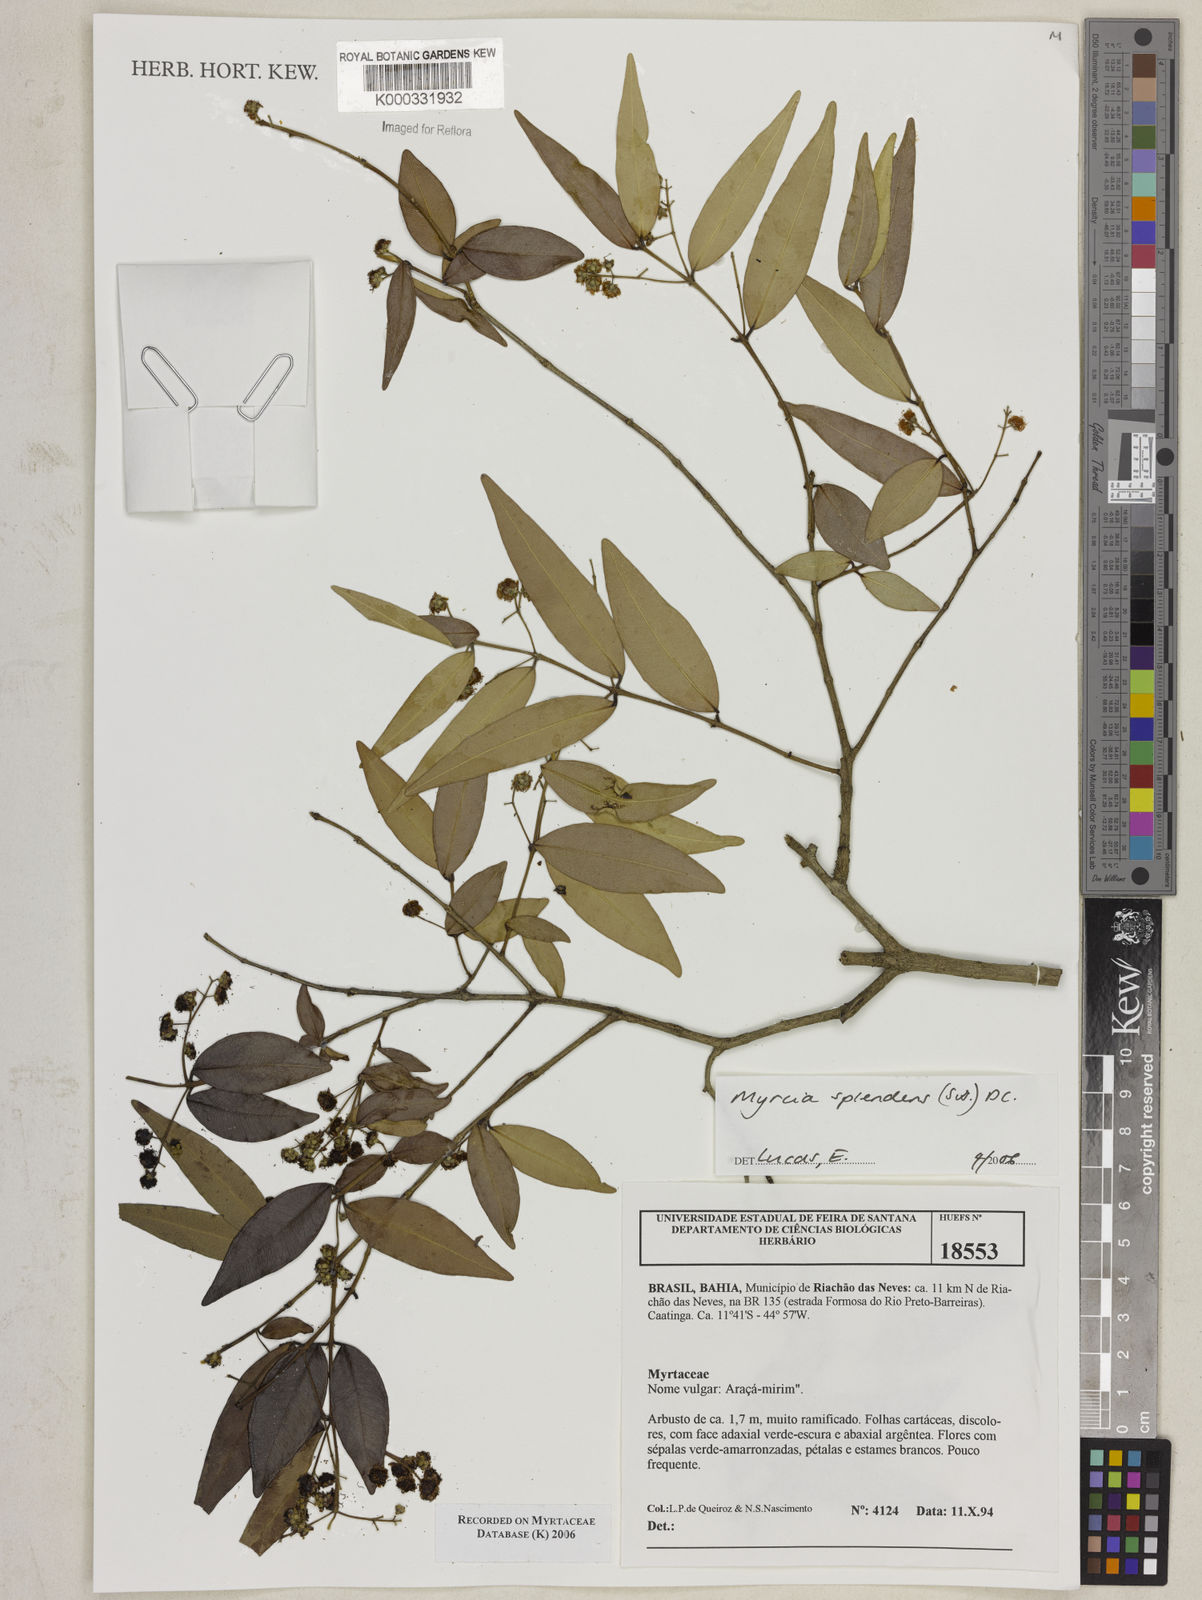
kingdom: Plantae
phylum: Tracheophyta
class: Magnoliopsida
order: Myrtales
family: Myrtaceae
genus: Myrcia
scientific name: Myrcia splendens
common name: Surinam cherry
